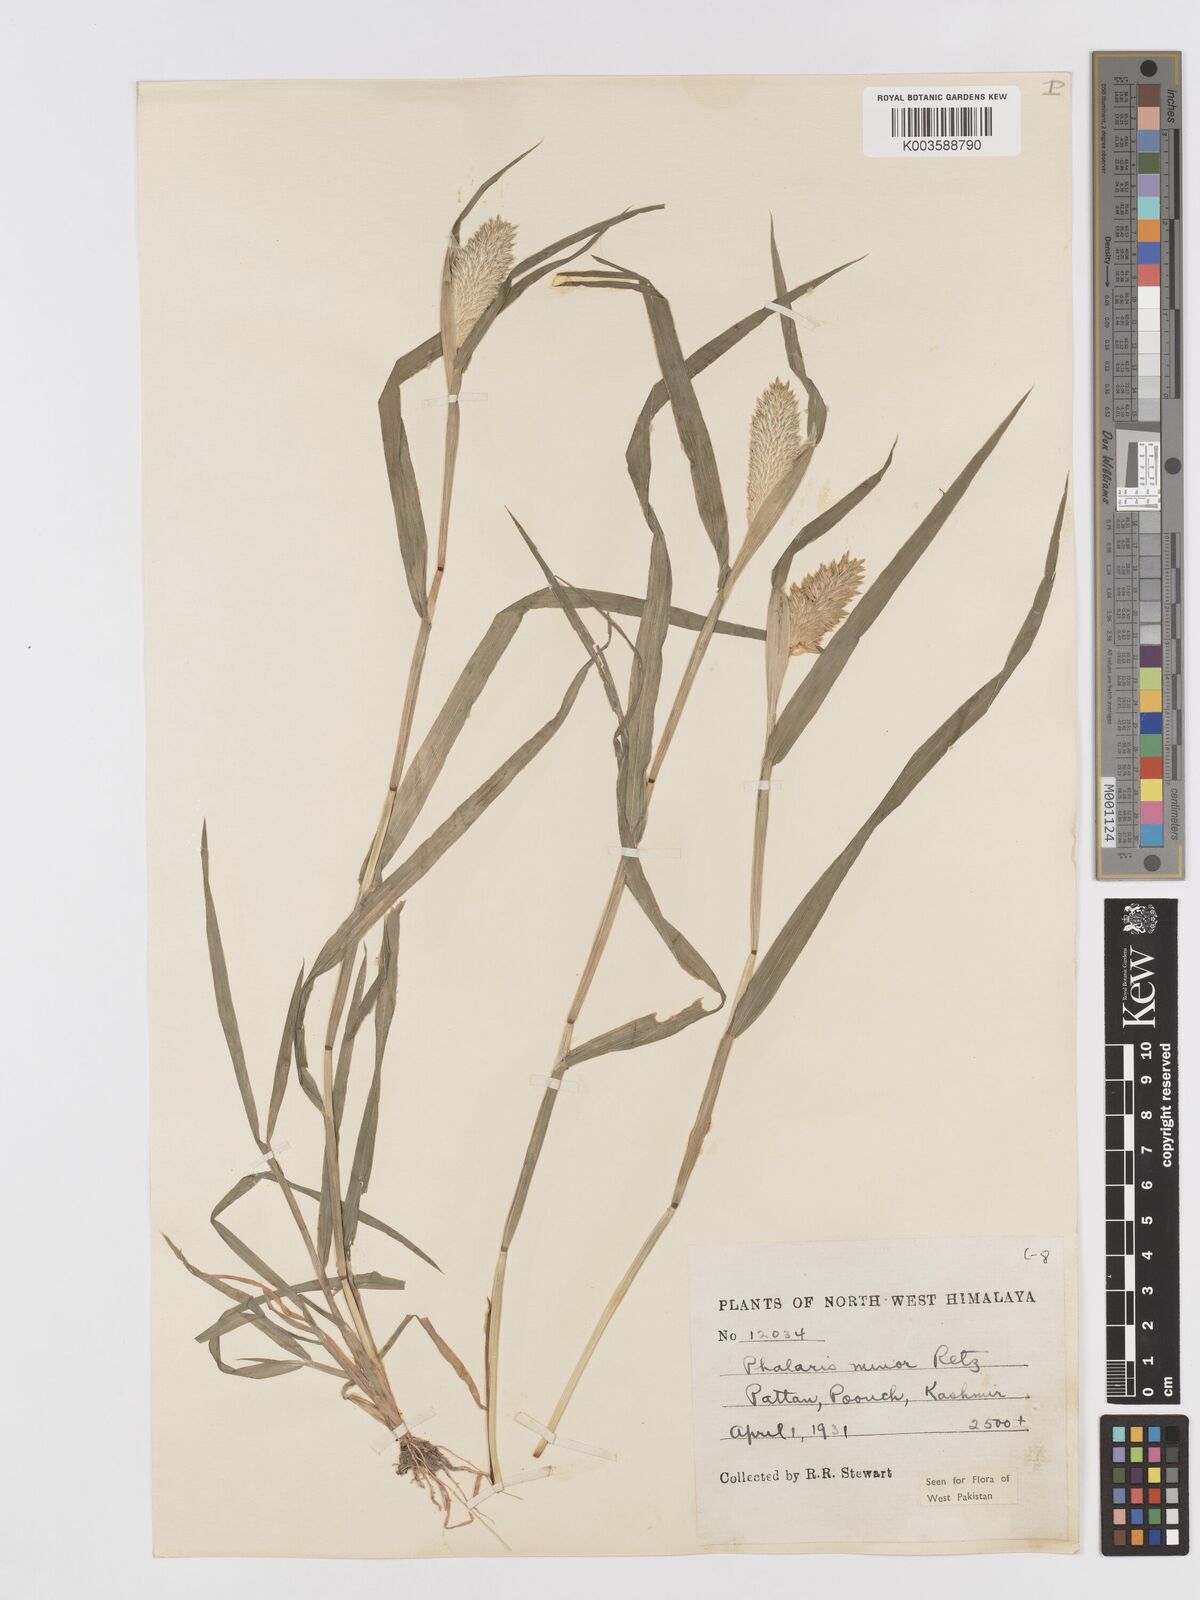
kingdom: Plantae
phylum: Tracheophyta
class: Liliopsida
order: Poales
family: Poaceae
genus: Phalaris
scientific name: Phalaris minor
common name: Littleseed canarygrass
